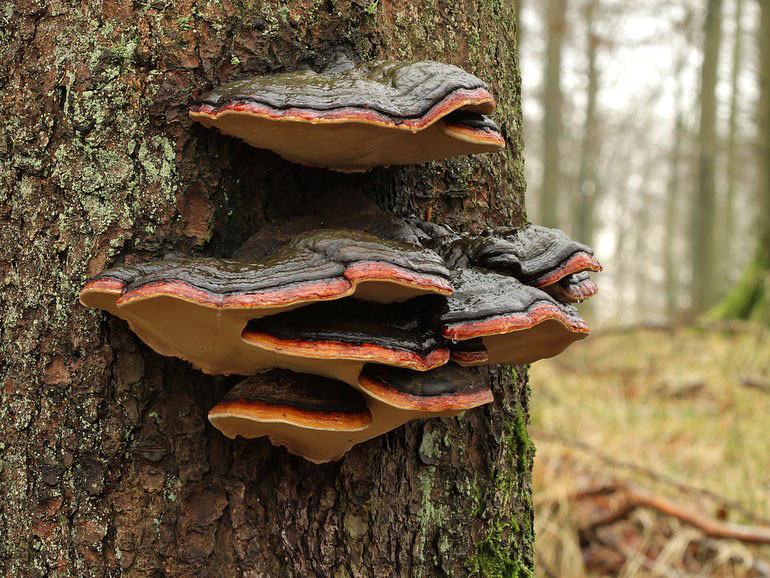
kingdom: Fungi
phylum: Basidiomycota
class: Agaricomycetes
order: Polyporales
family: Fomitopsidaceae
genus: Fomitopsis
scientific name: Fomitopsis pinicola
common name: randbæltet hovporesvamp
